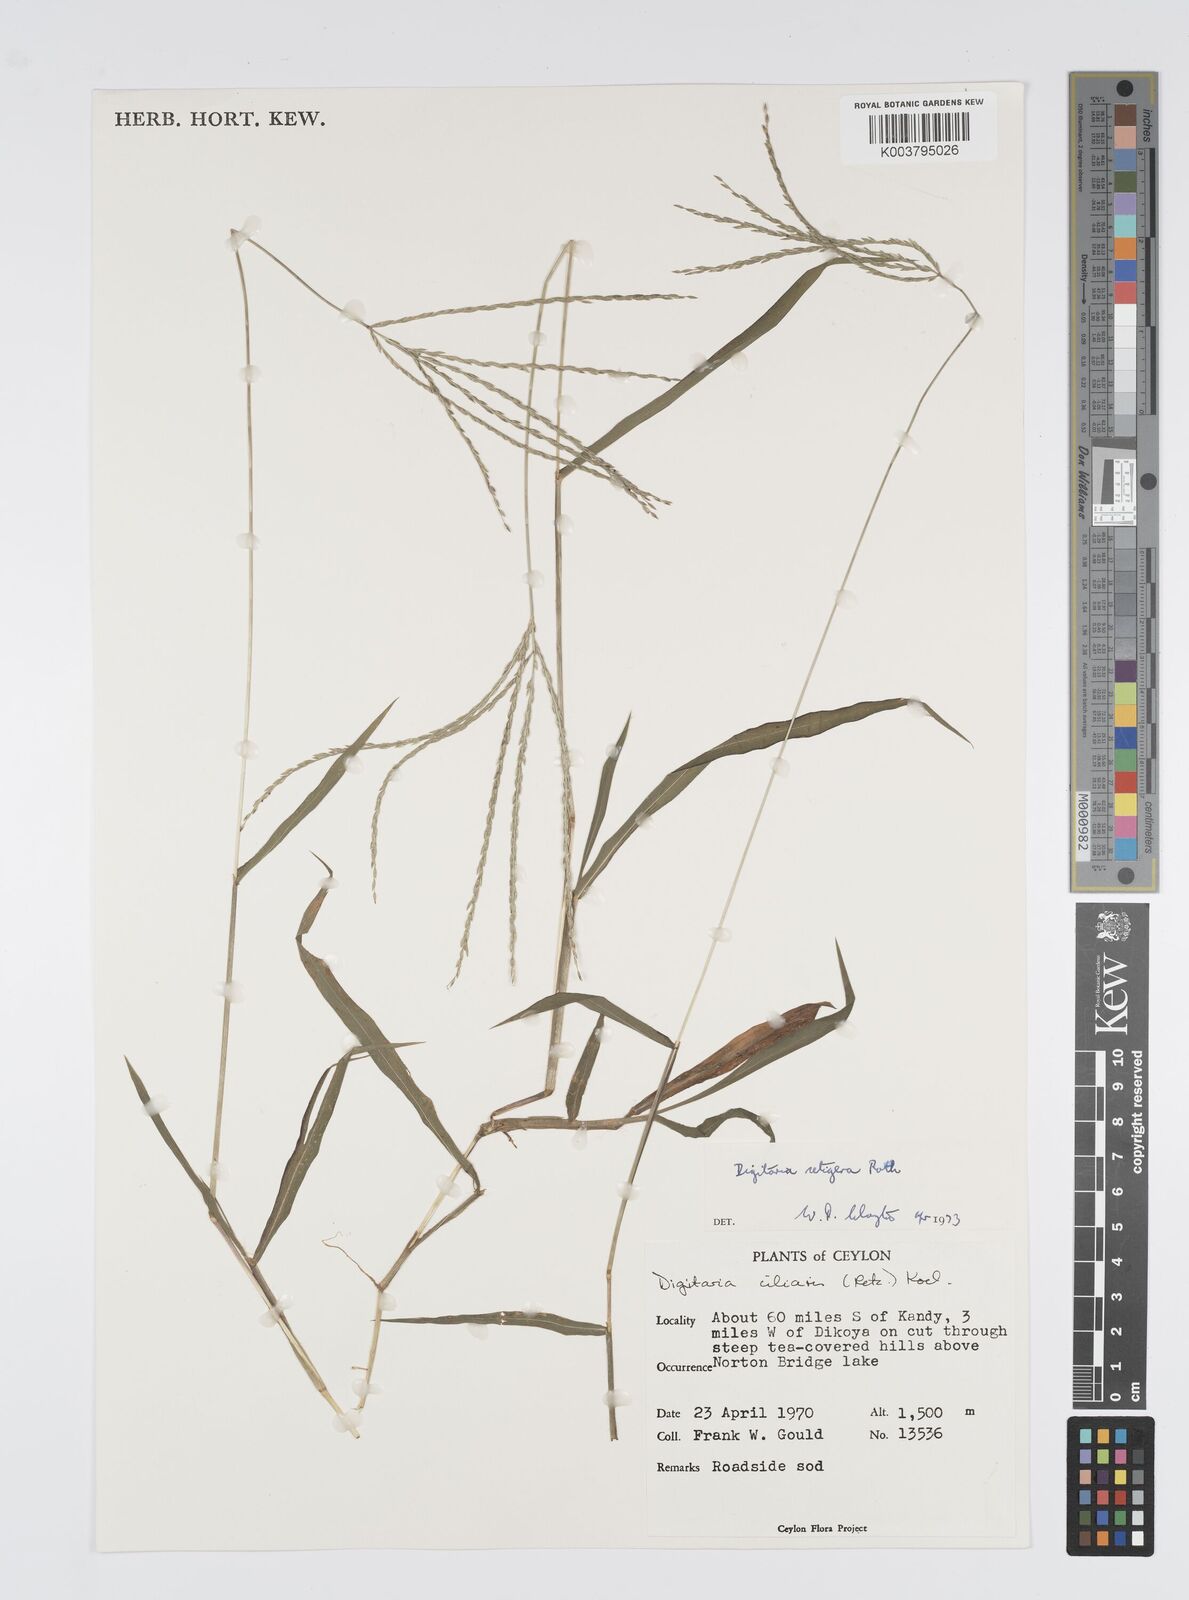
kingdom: Plantae
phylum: Tracheophyta
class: Liliopsida
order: Poales
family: Poaceae
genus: Digitaria
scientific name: Digitaria setigera
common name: East indian crabgrass
